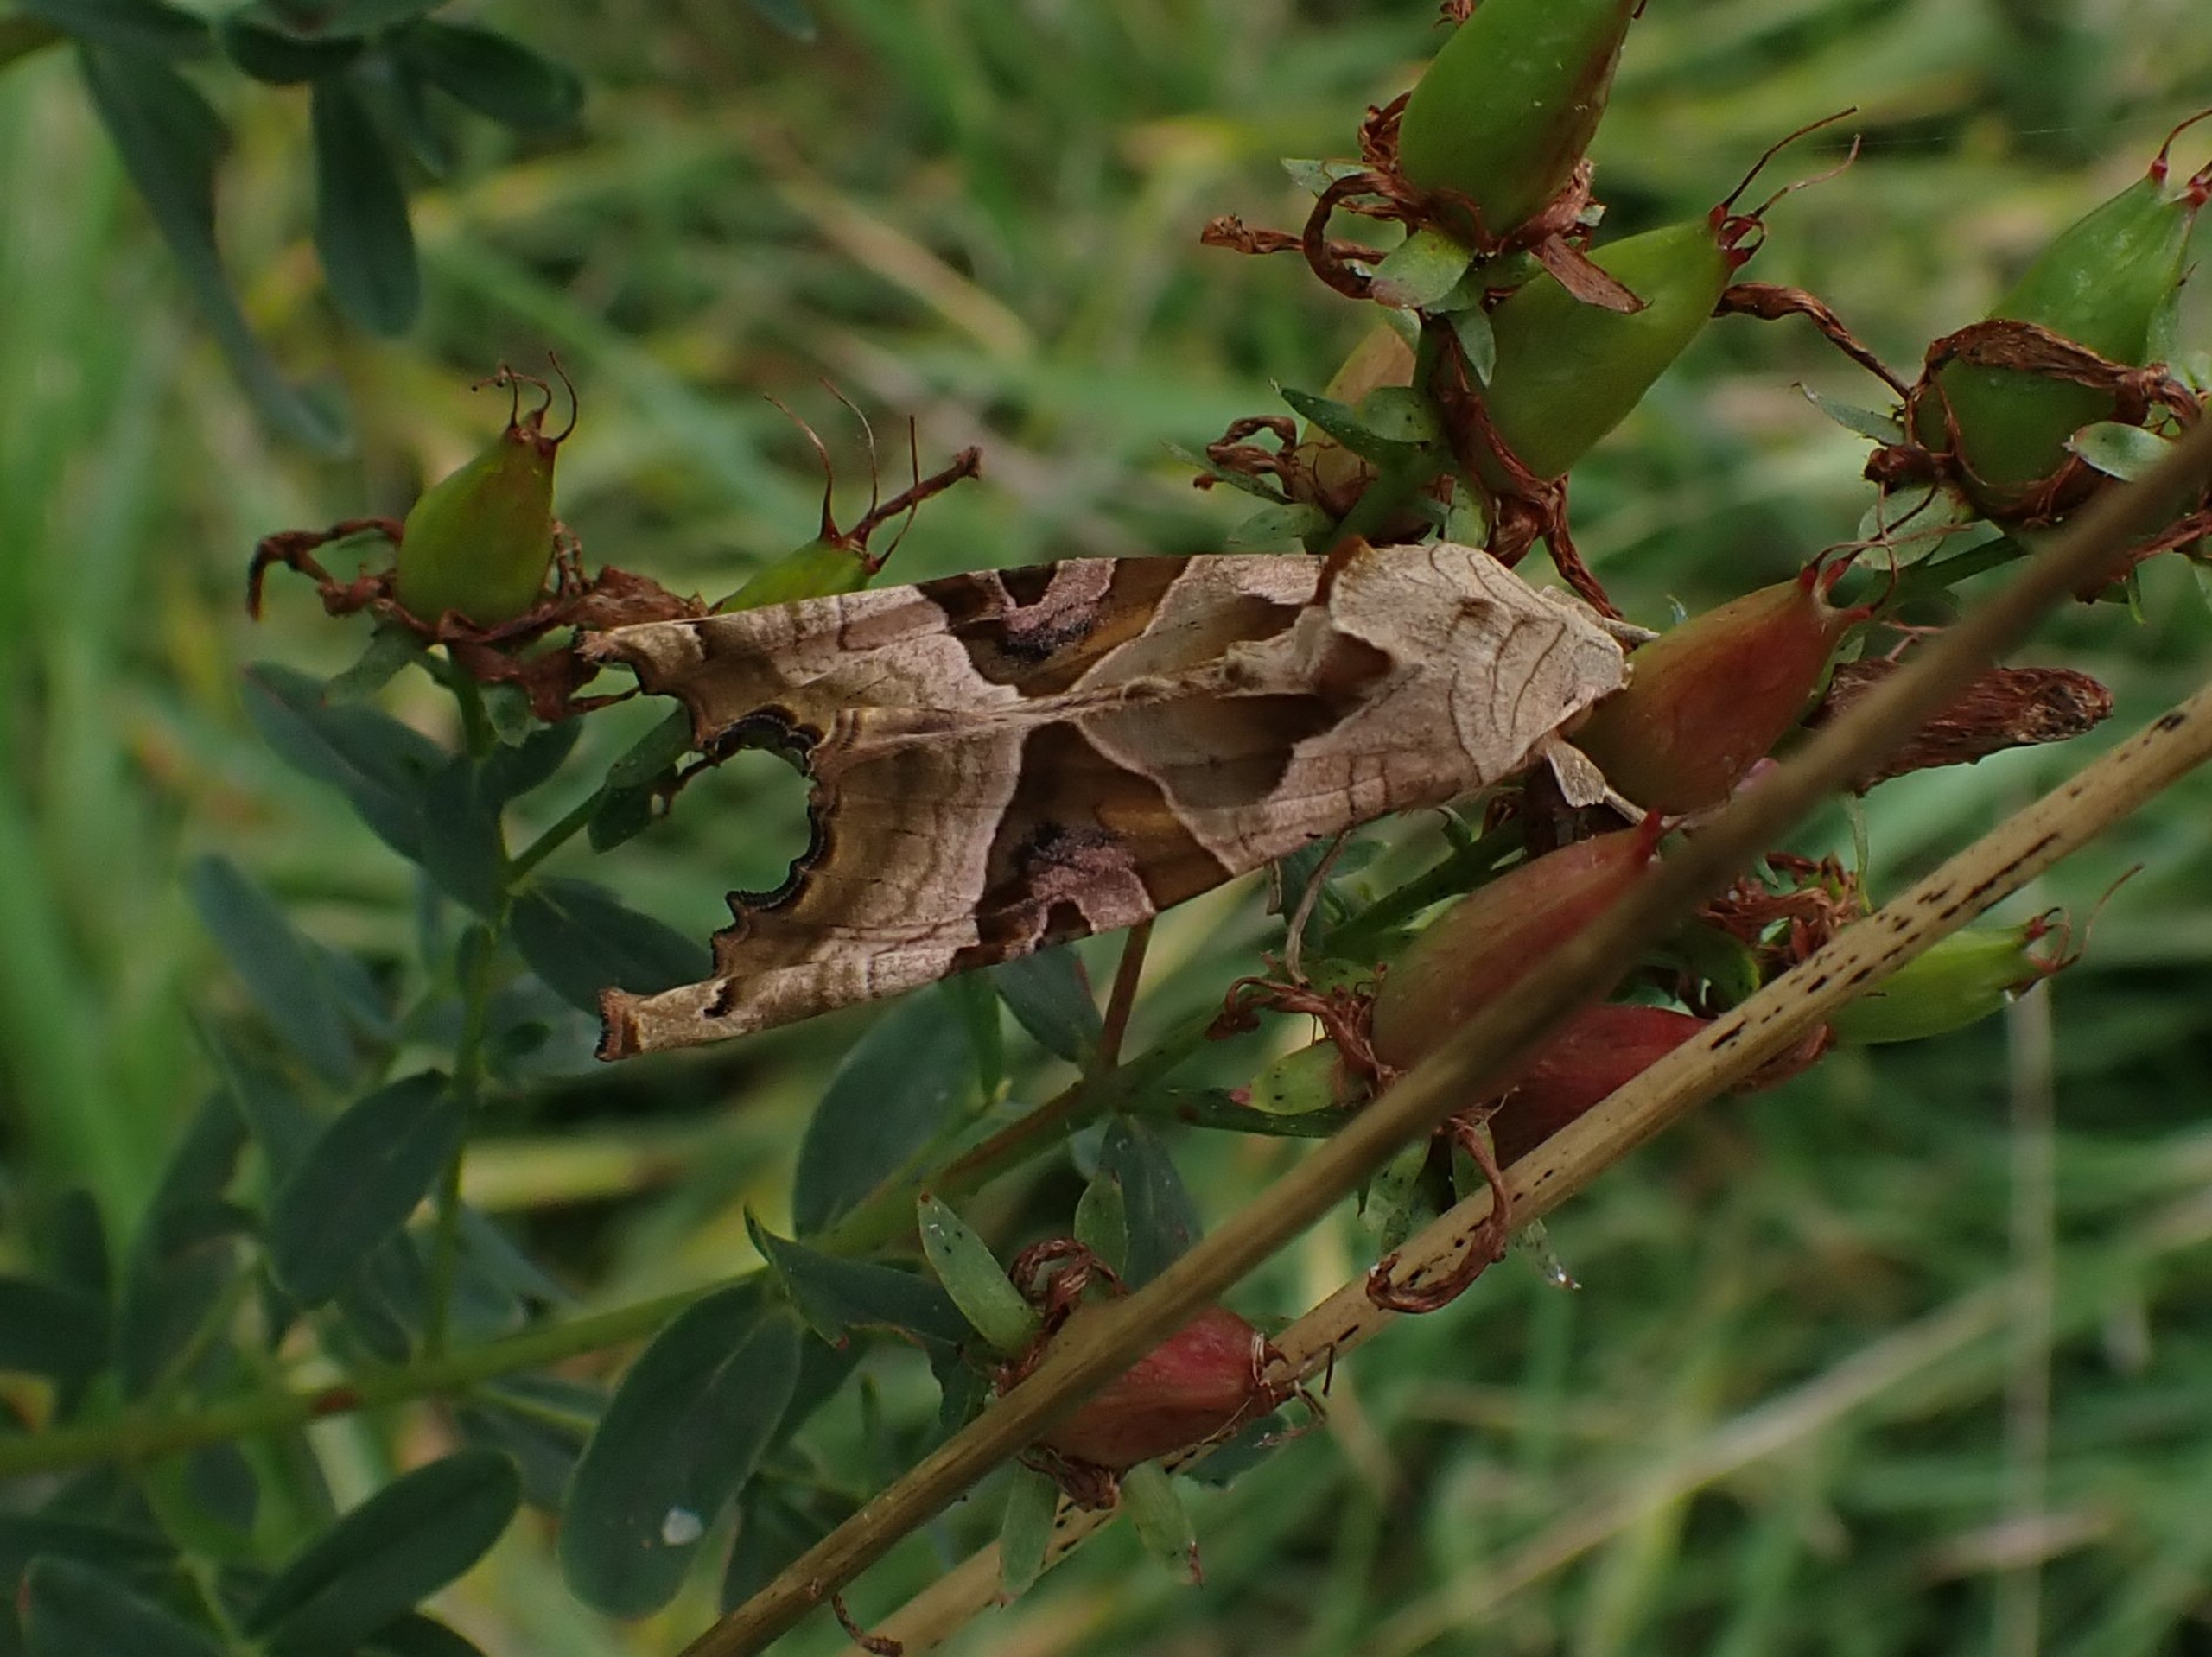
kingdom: Animalia
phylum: Arthropoda
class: Insecta
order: Lepidoptera
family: Noctuidae
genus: Phlogophora
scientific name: Phlogophora meticulosa
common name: Agatugle
